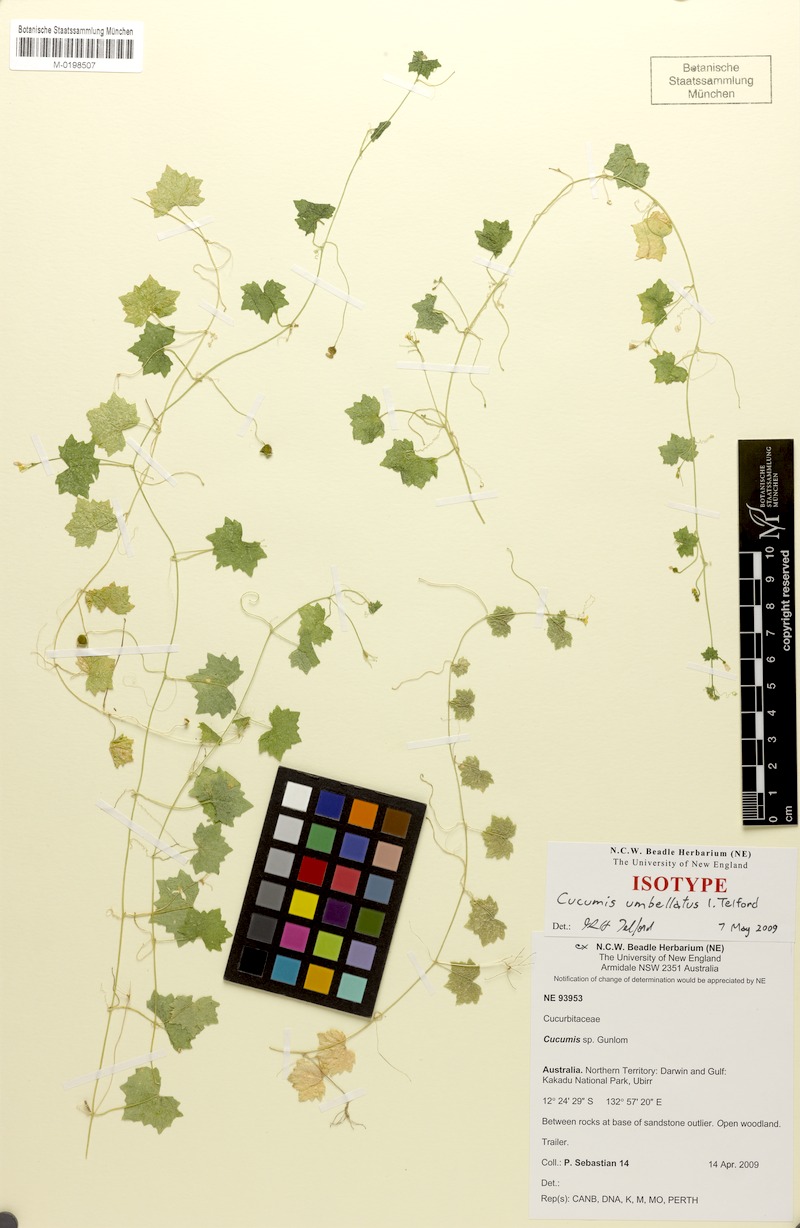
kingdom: Plantae
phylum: Tracheophyta
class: Magnoliopsida
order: Cucurbitales
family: Cucurbitaceae
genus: Cucumis
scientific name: Cucumis umbellatus
